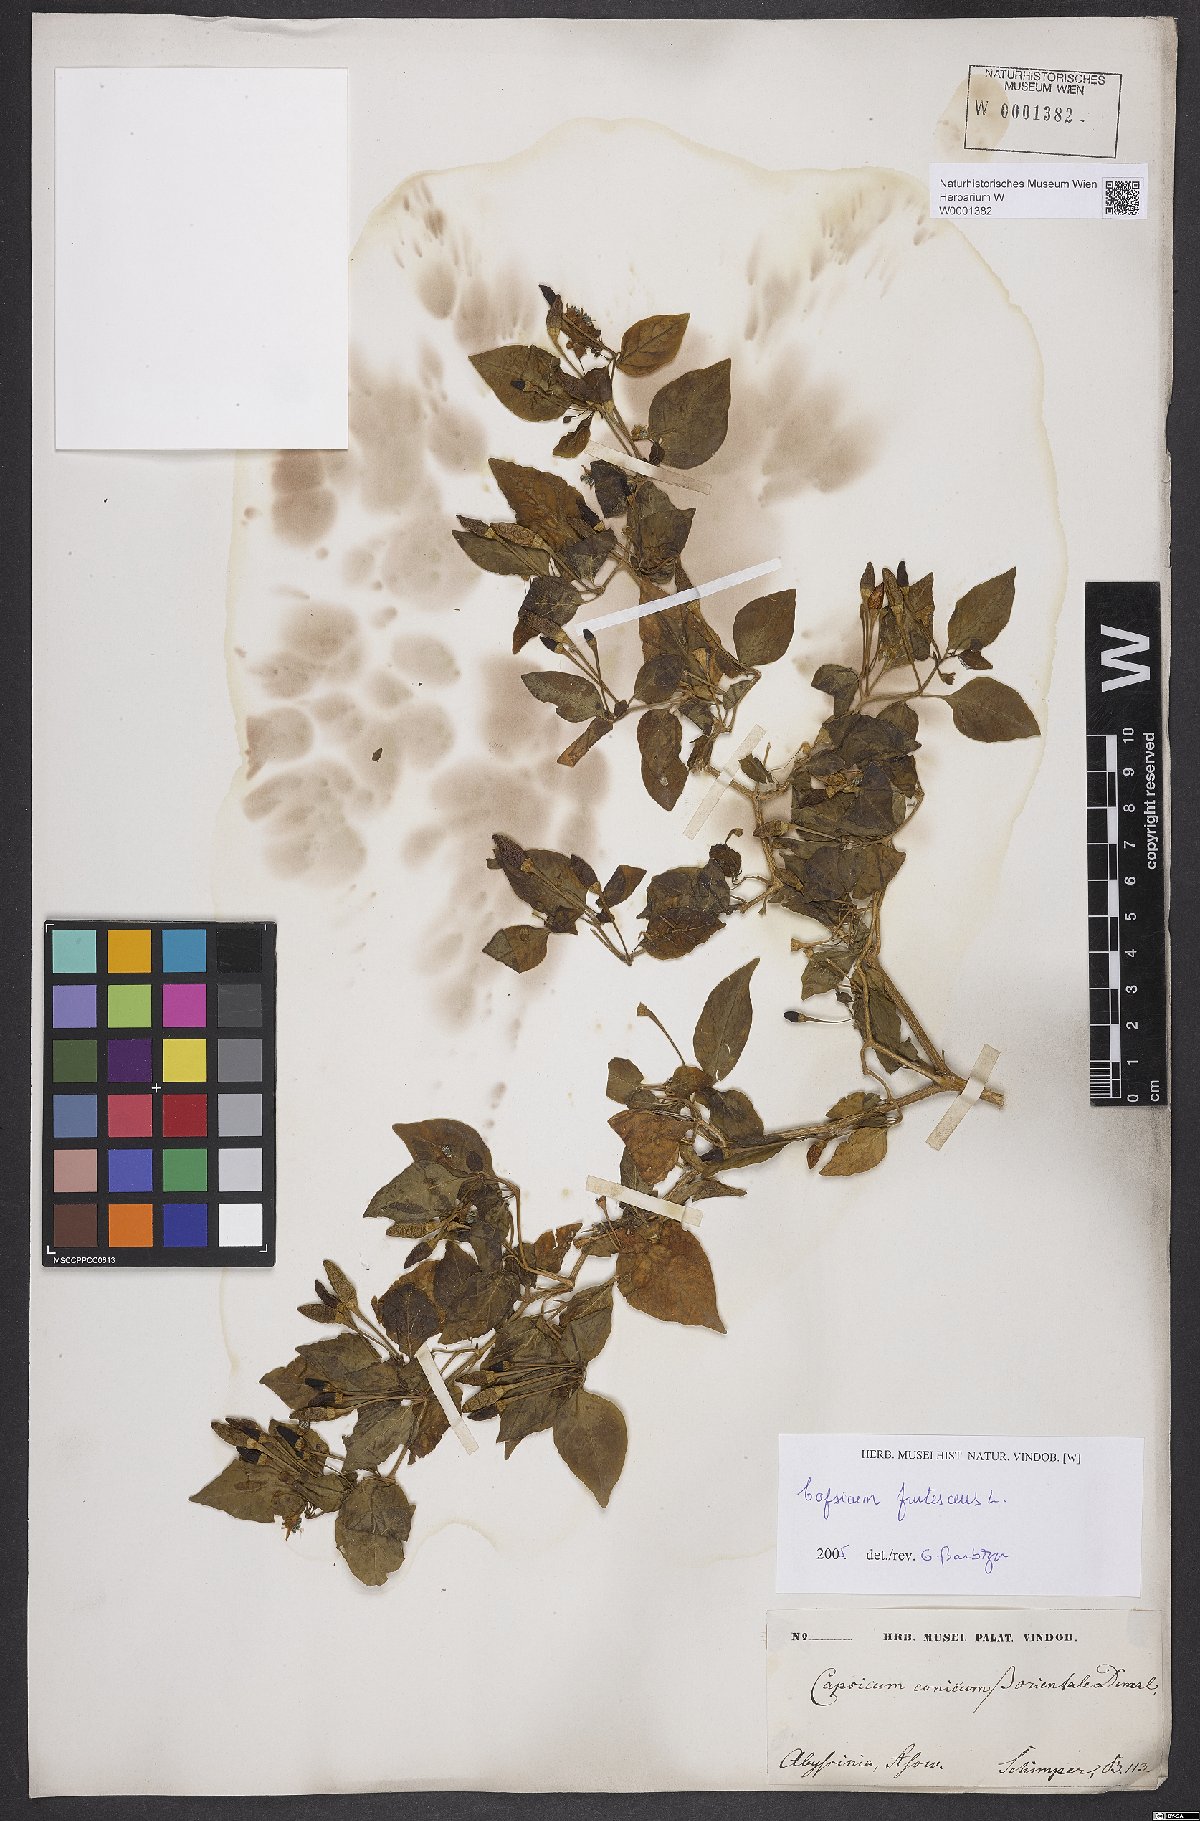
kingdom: Plantae
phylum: Tracheophyta
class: Magnoliopsida
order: Solanales
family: Solanaceae
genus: Capsicum
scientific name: Capsicum frutescens
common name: Bird pepper
